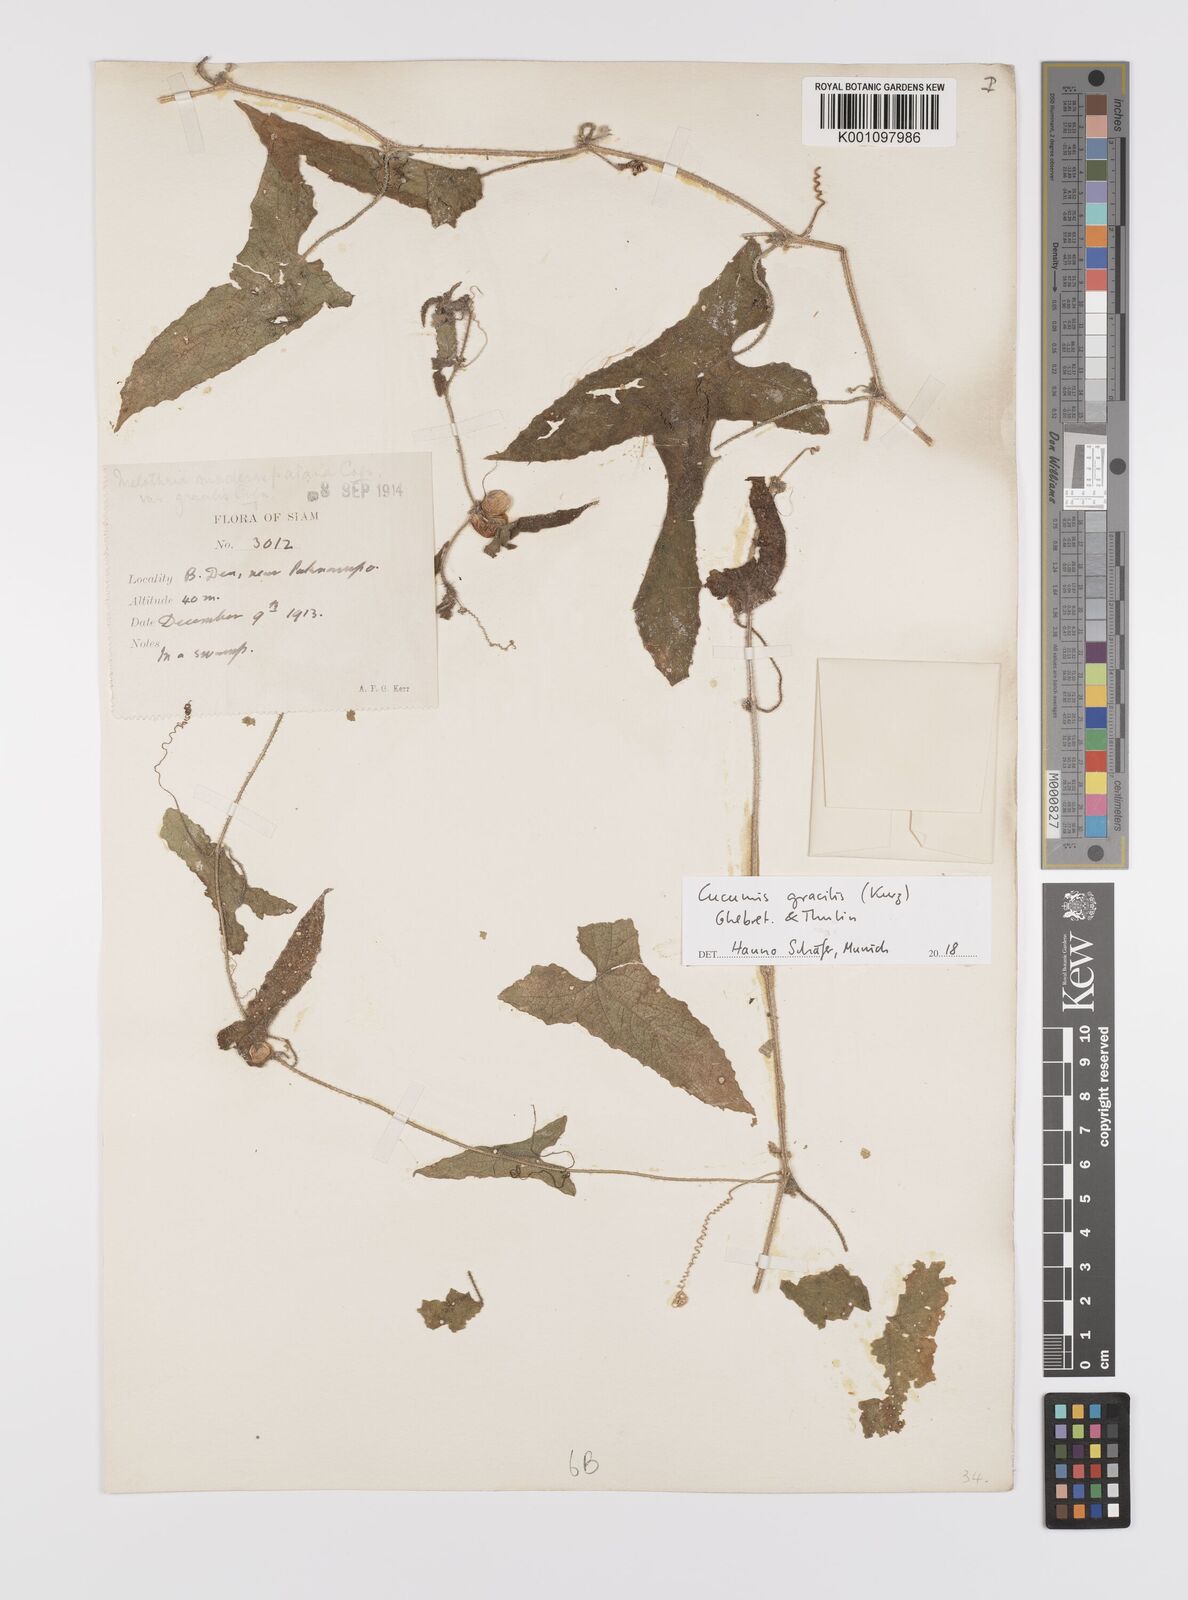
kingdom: Plantae
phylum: Tracheophyta
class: Magnoliopsida
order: Cucurbitales
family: Cucurbitaceae
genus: Cucumis
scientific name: Cucumis gracilis
